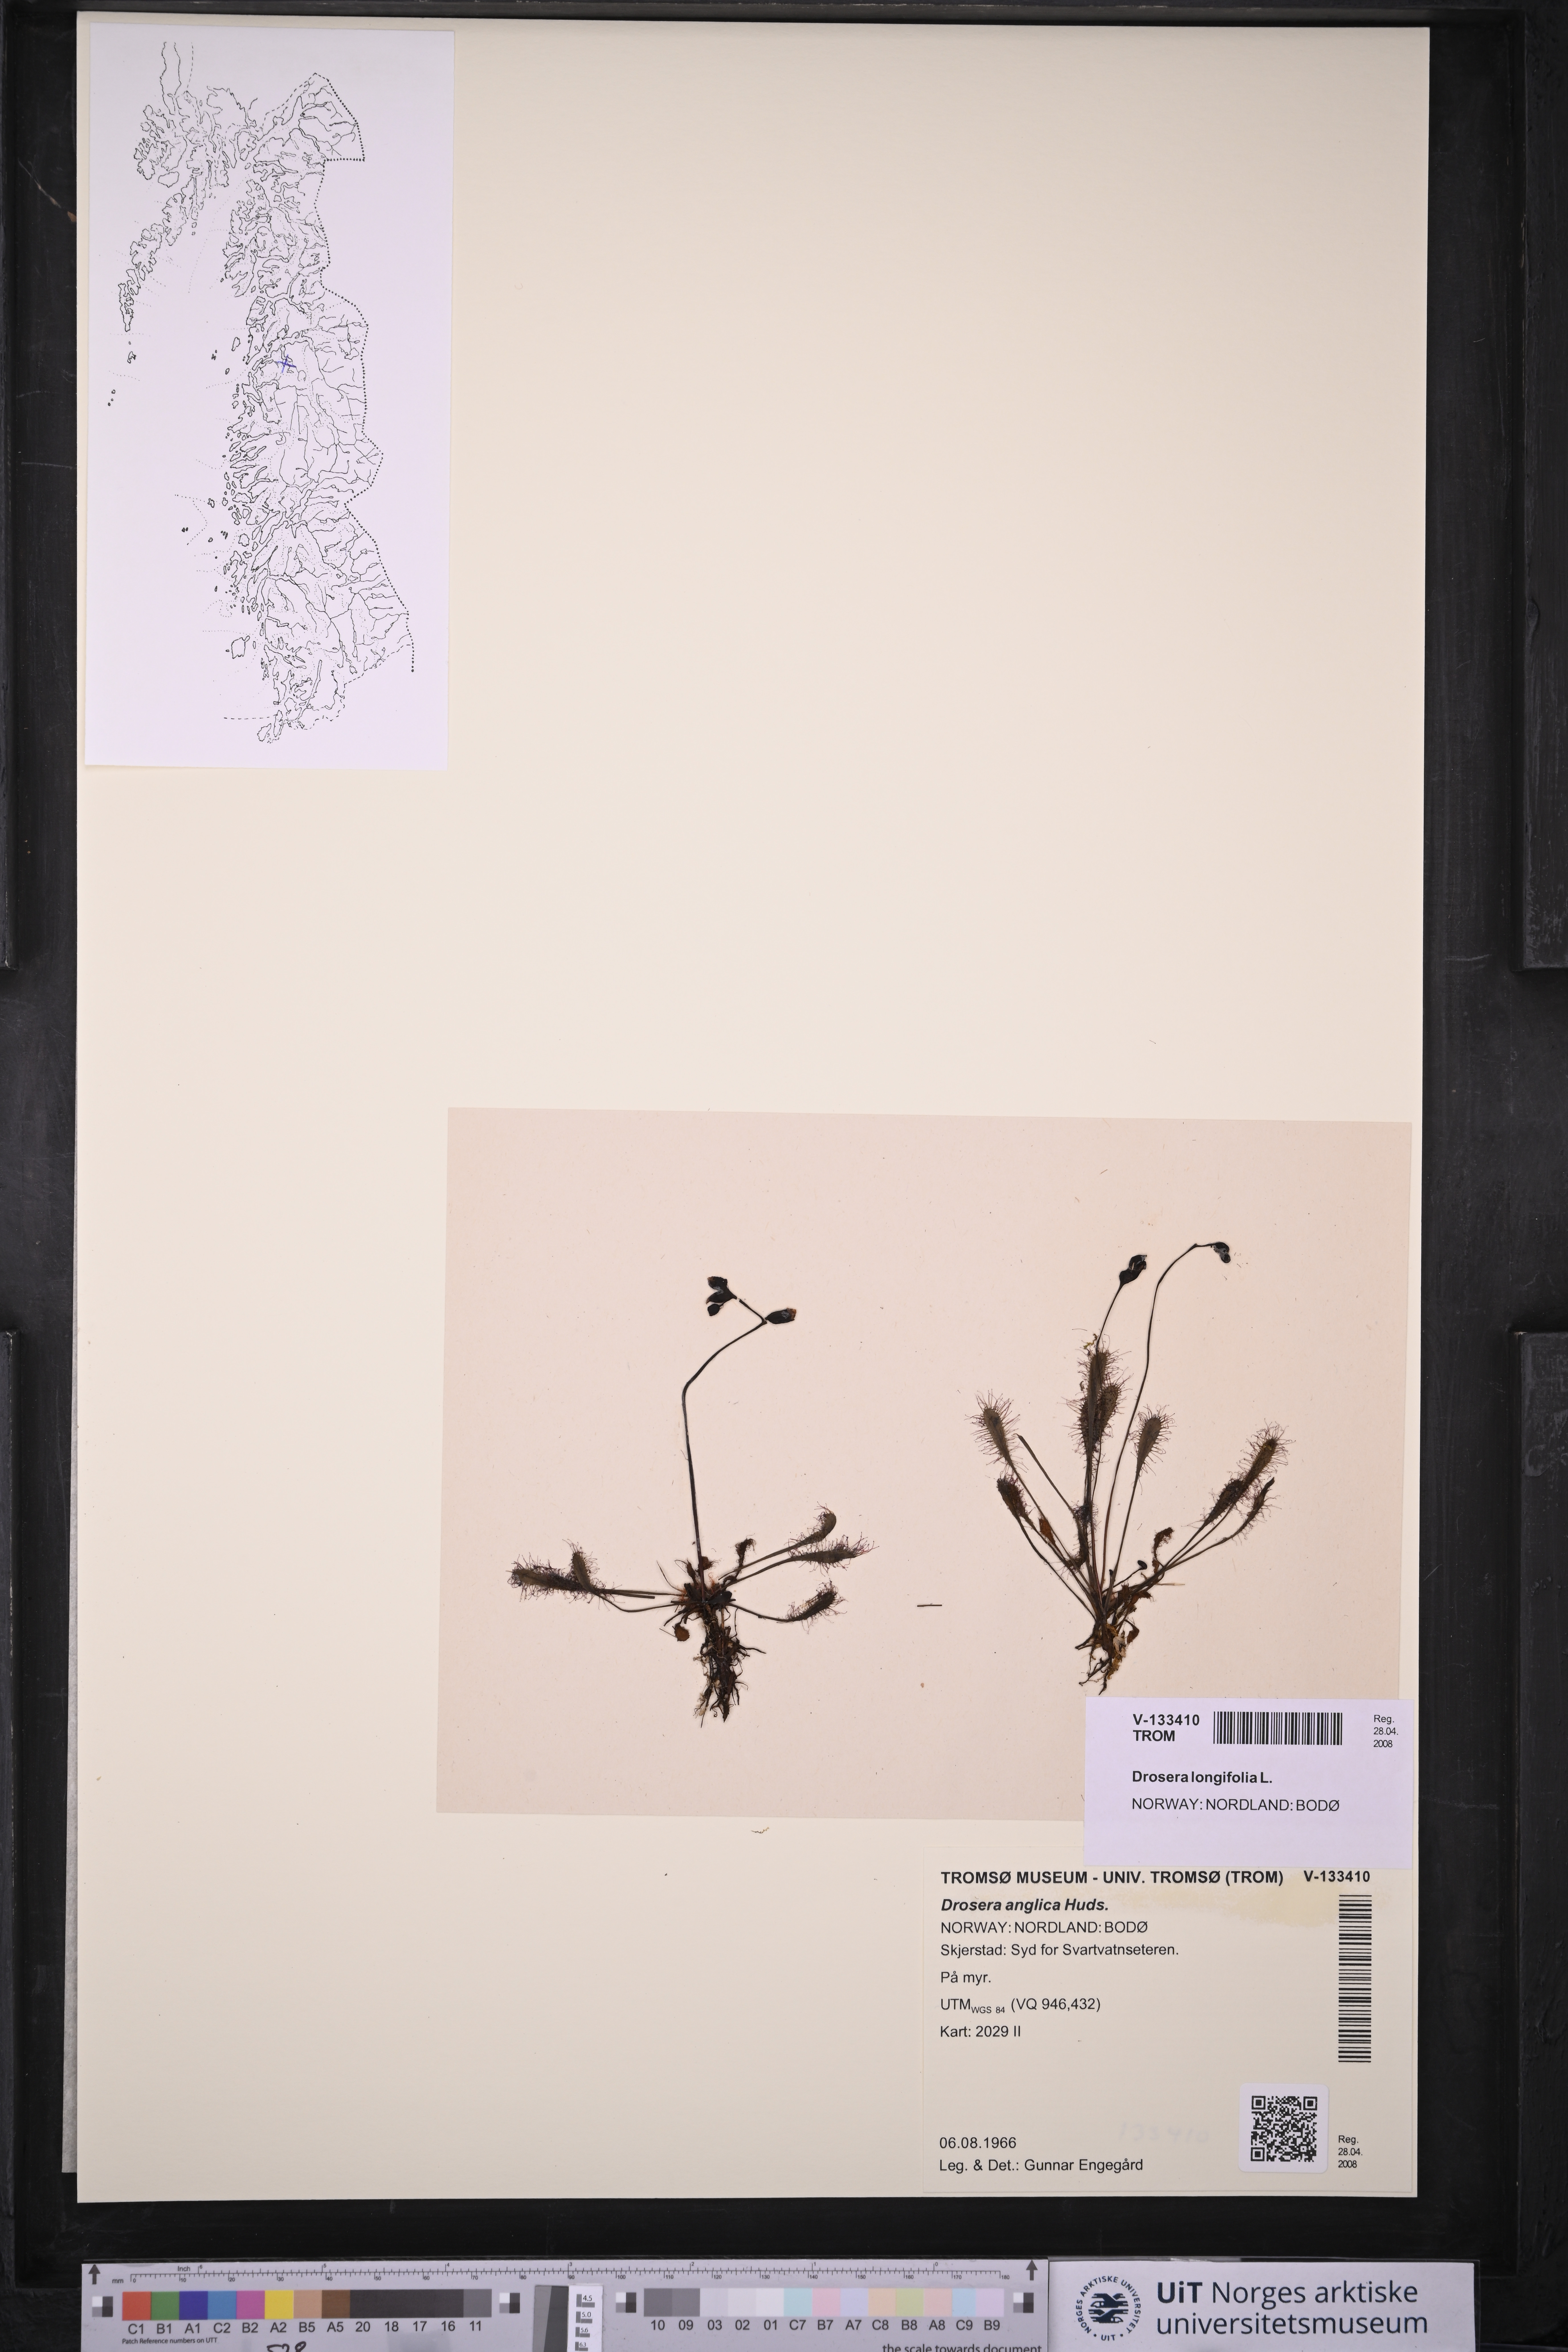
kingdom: Plantae
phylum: Tracheophyta
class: Magnoliopsida
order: Caryophyllales
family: Droseraceae
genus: Drosera
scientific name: Drosera anglica
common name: Great sundew
